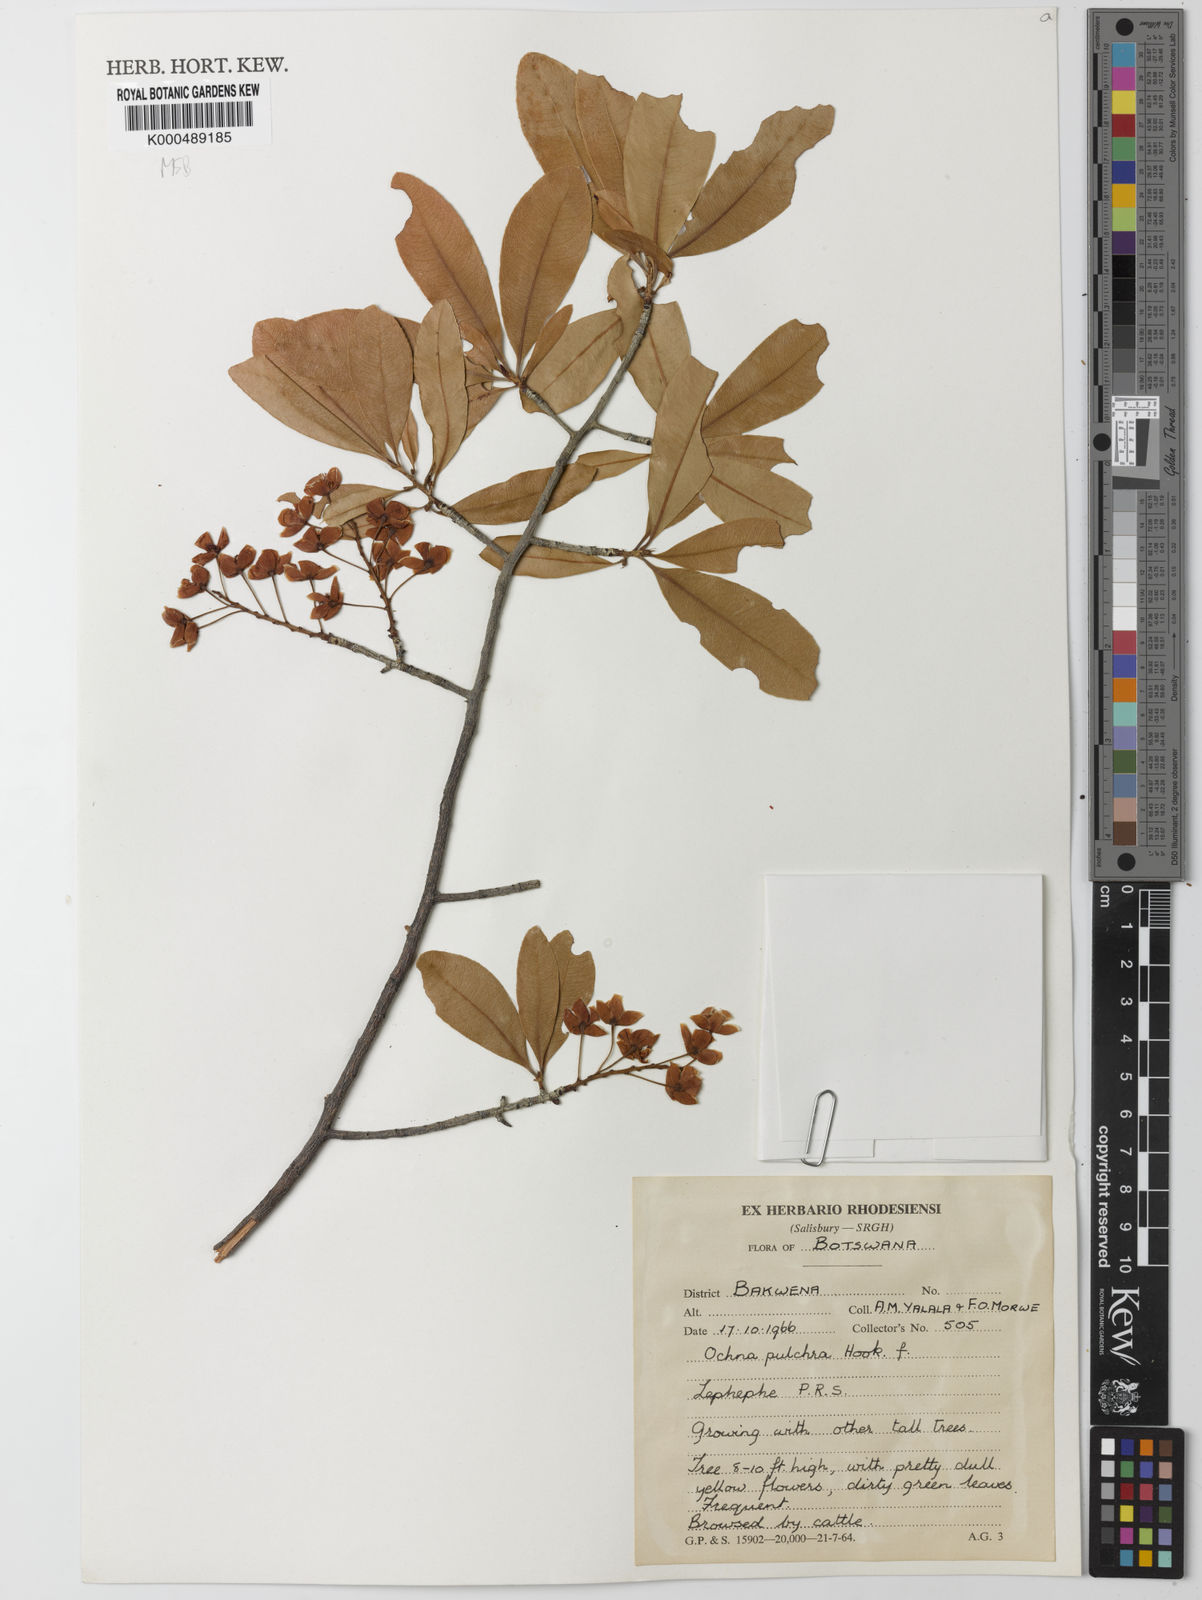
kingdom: Plantae
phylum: Tracheophyta
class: Magnoliopsida
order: Malpighiales
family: Ochnaceae
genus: Ochna
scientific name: Ochna pulchra
